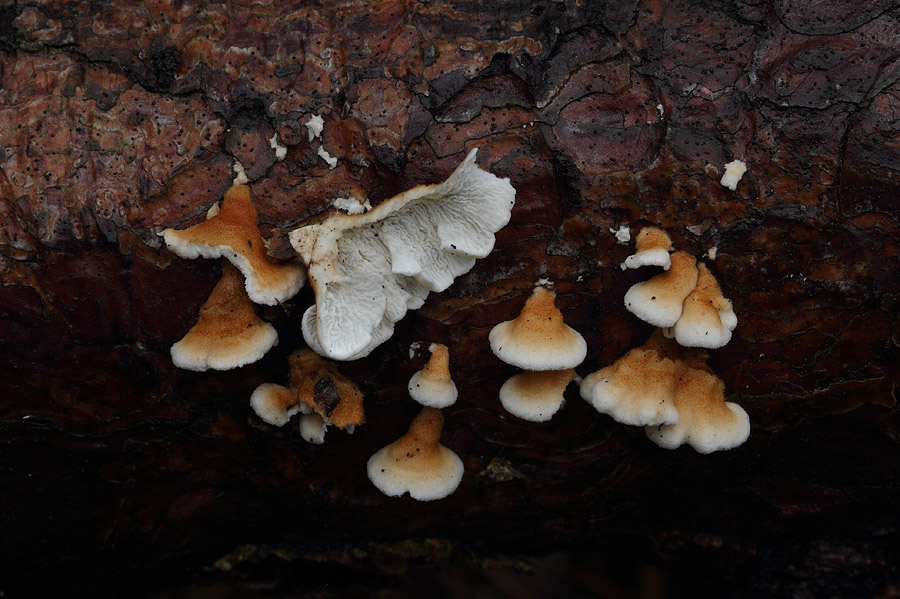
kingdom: Fungi
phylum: Basidiomycota
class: Agaricomycetes
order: Amylocorticiales
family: Amylocorticiaceae
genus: Plicaturopsis
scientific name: Plicaturopsis crispa
